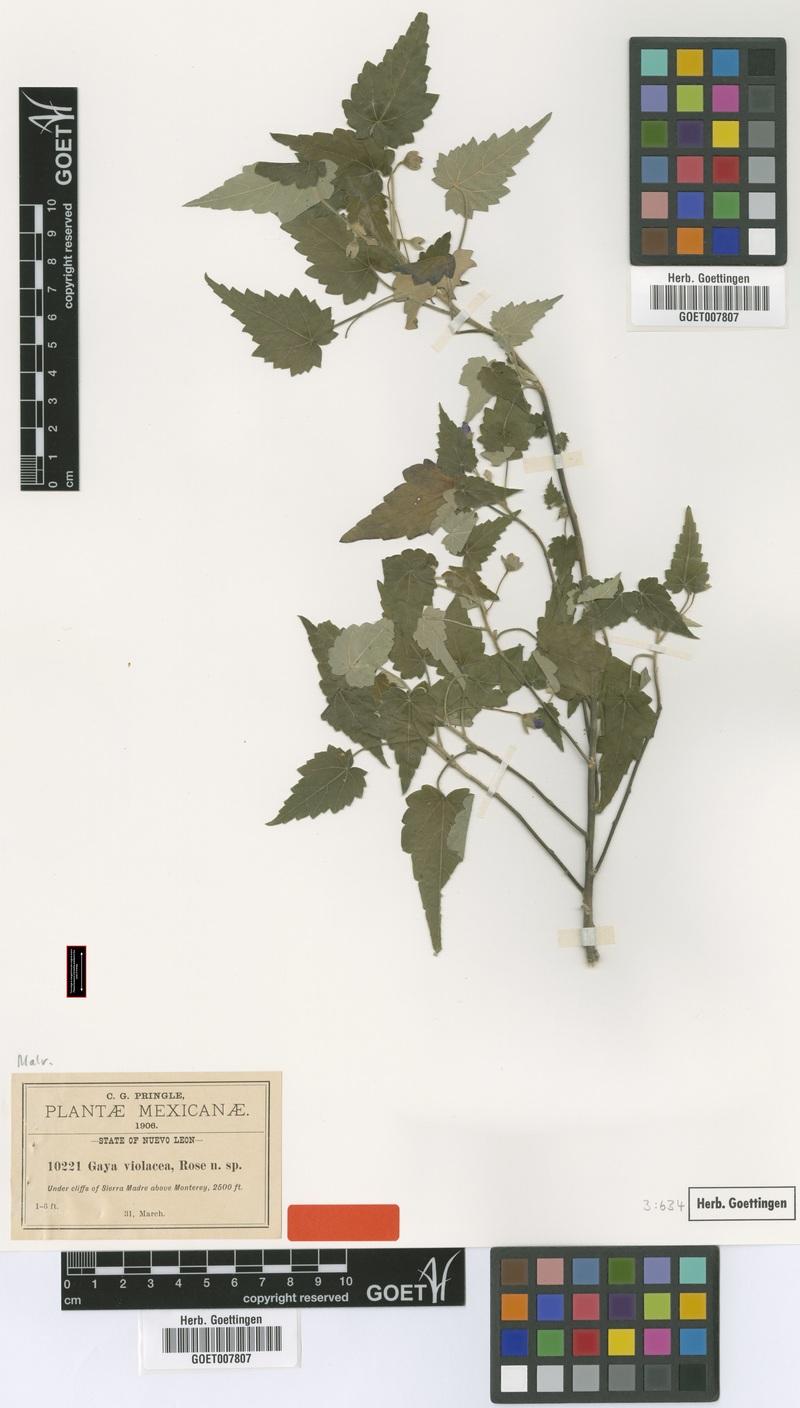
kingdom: Plantae
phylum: Tracheophyta
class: Magnoliopsida
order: Malvales
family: Malvaceae
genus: Batesimalva
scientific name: Batesimalva violacea
